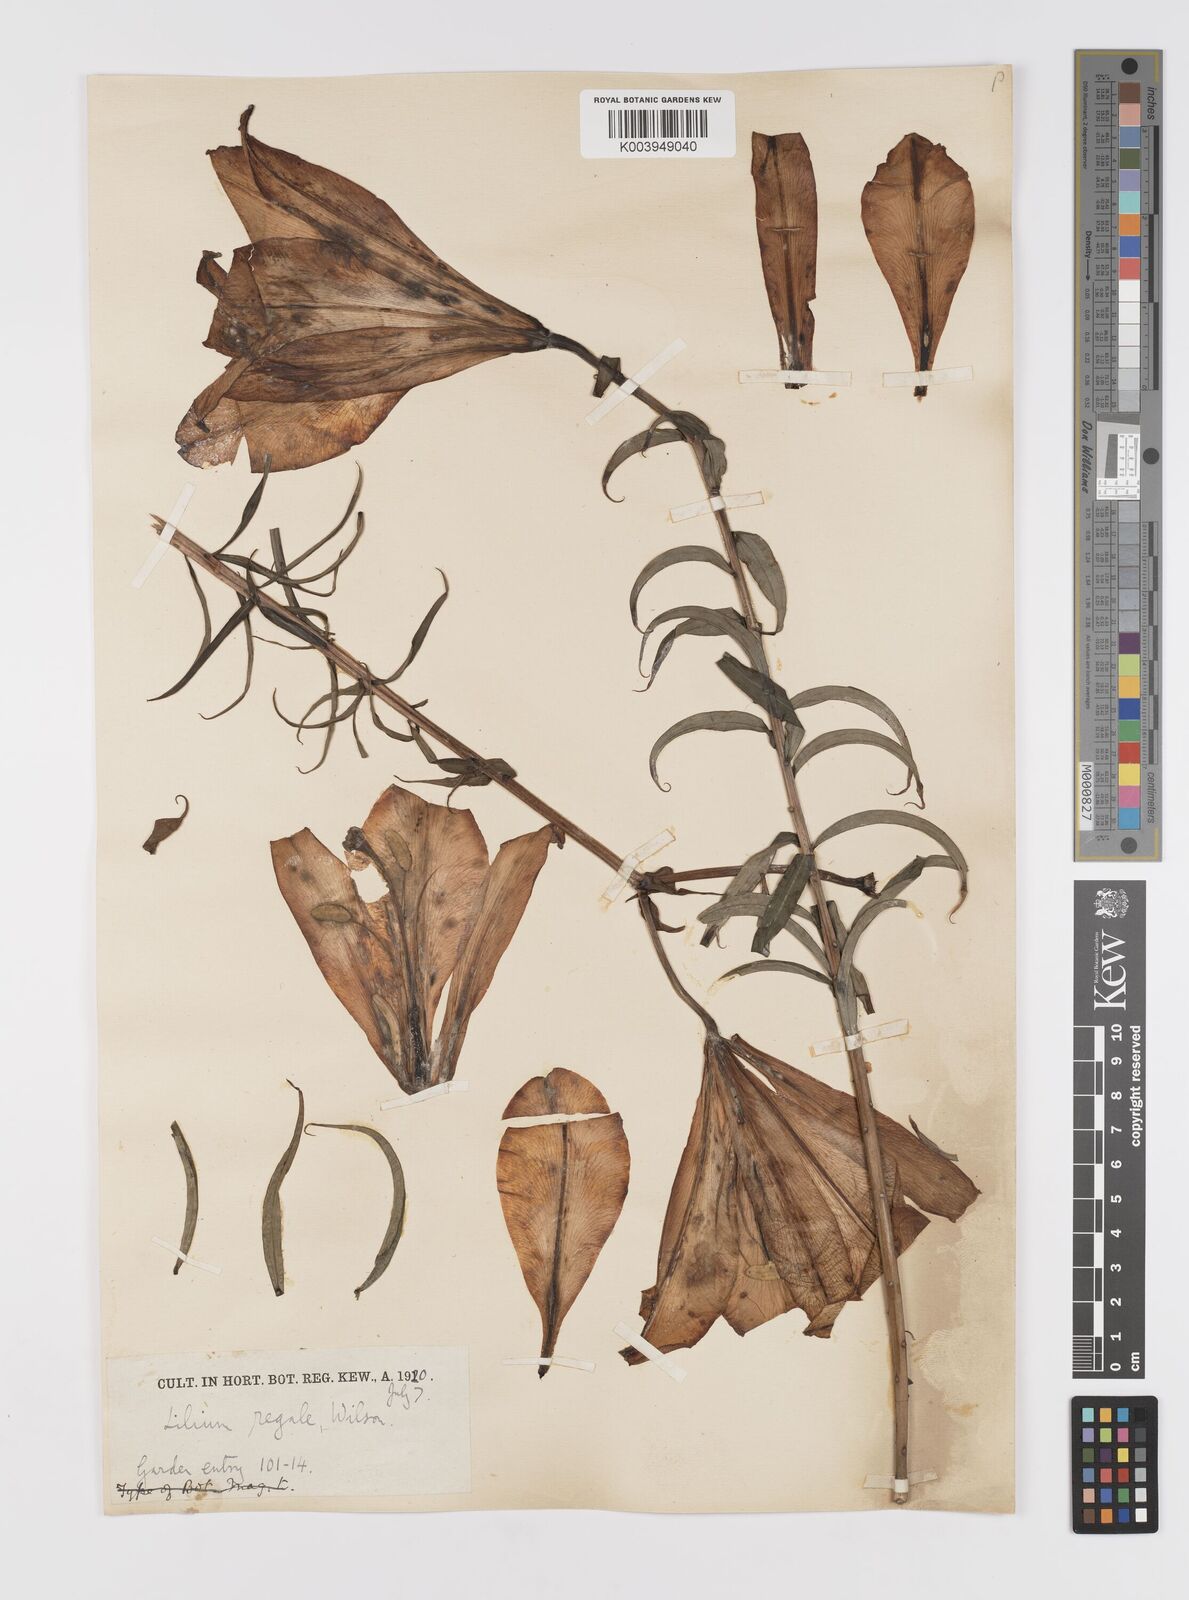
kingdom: Plantae
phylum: Tracheophyta
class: Liliopsida
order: Liliales
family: Liliaceae
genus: Lilium
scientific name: Lilium regale
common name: Regal lily
